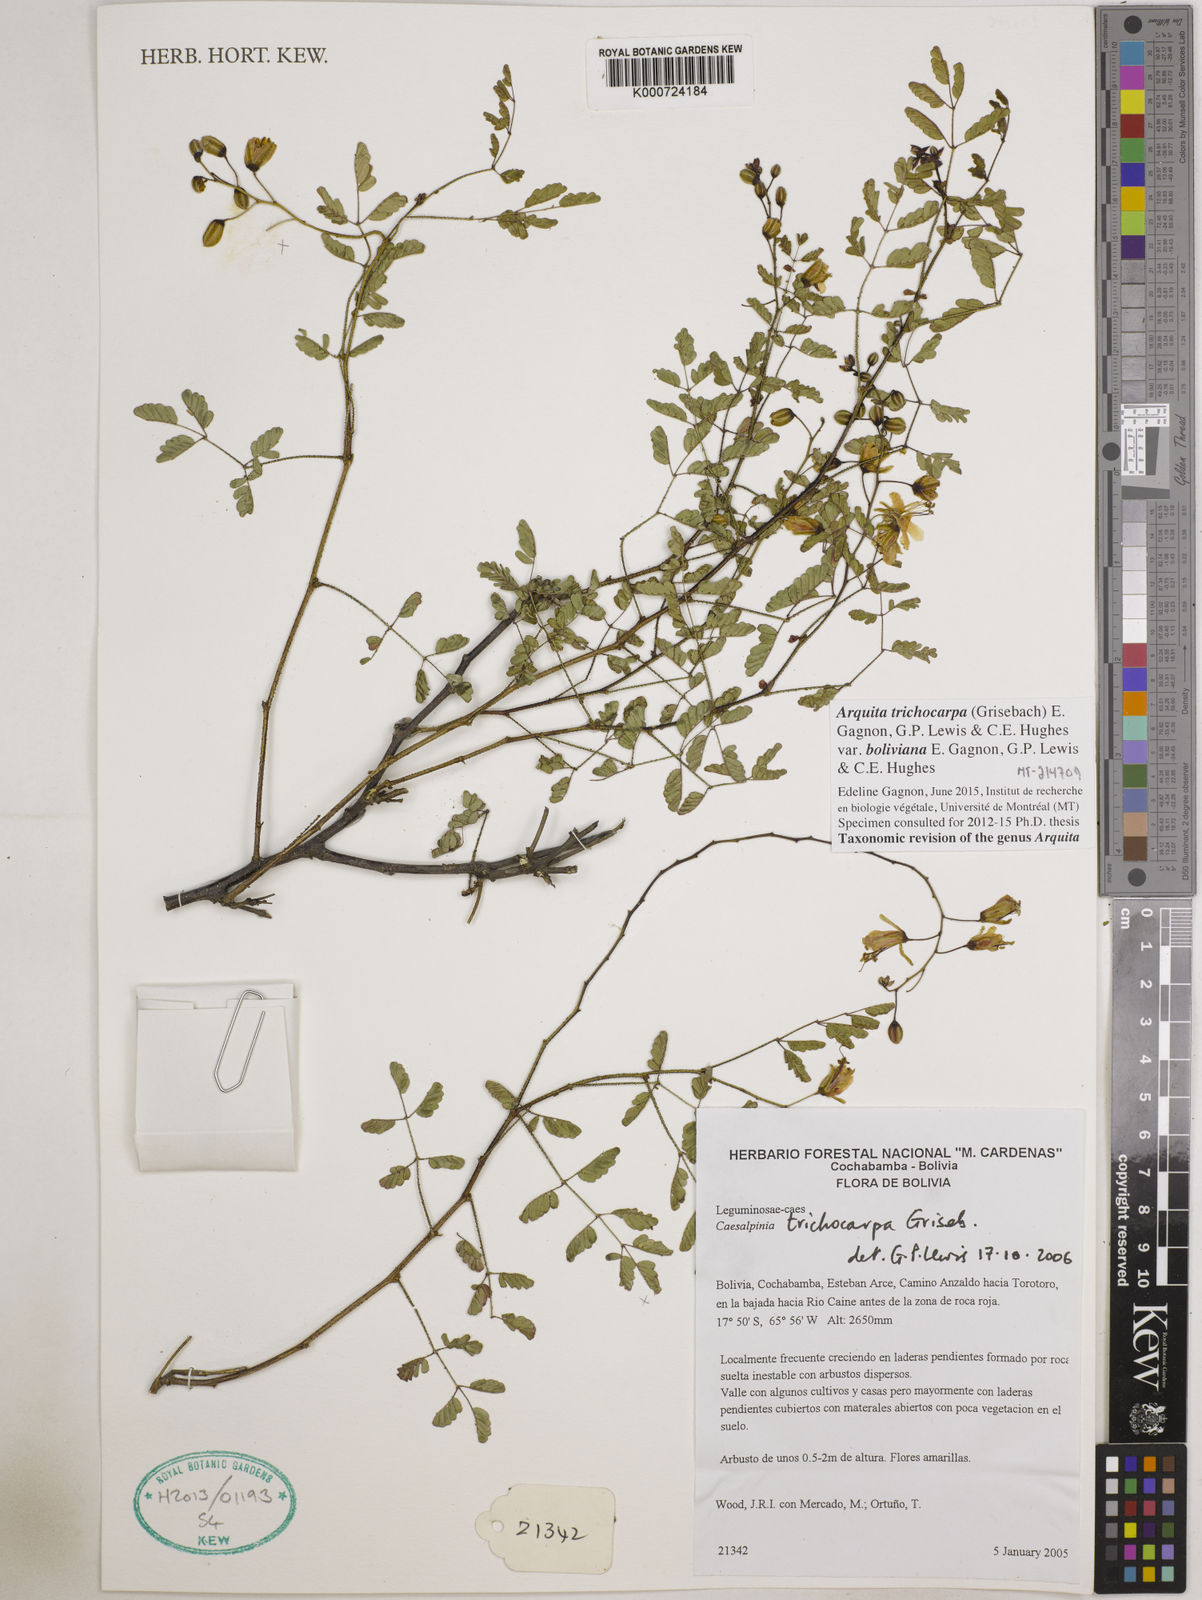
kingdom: Plantae
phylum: Tracheophyta
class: Magnoliopsida
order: Fabales
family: Fabaceae
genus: Arquita
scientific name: Arquita trichocarpa
